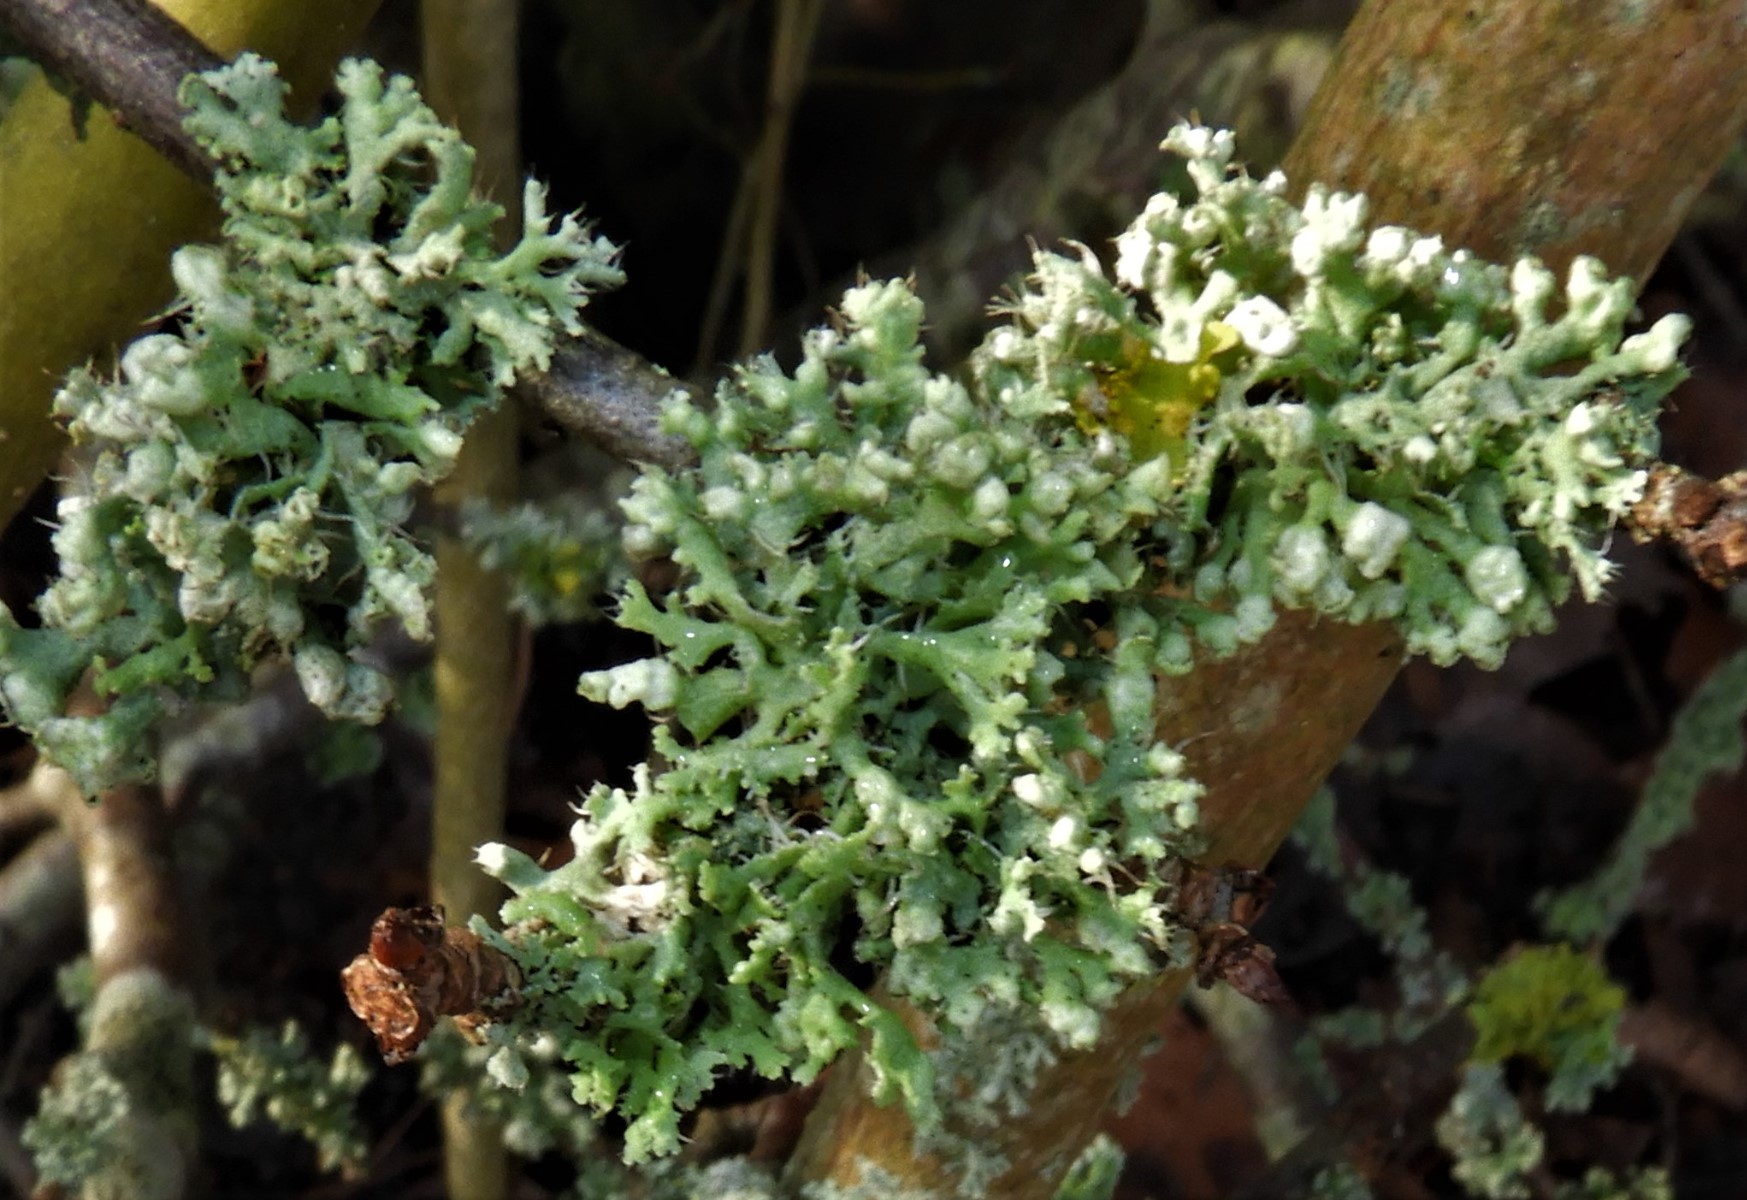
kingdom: Fungi
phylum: Ascomycota
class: Lecanoromycetes
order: Caliciales
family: Physciaceae
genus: Physcia
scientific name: Physcia adscendens
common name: hætte-rosetlav
